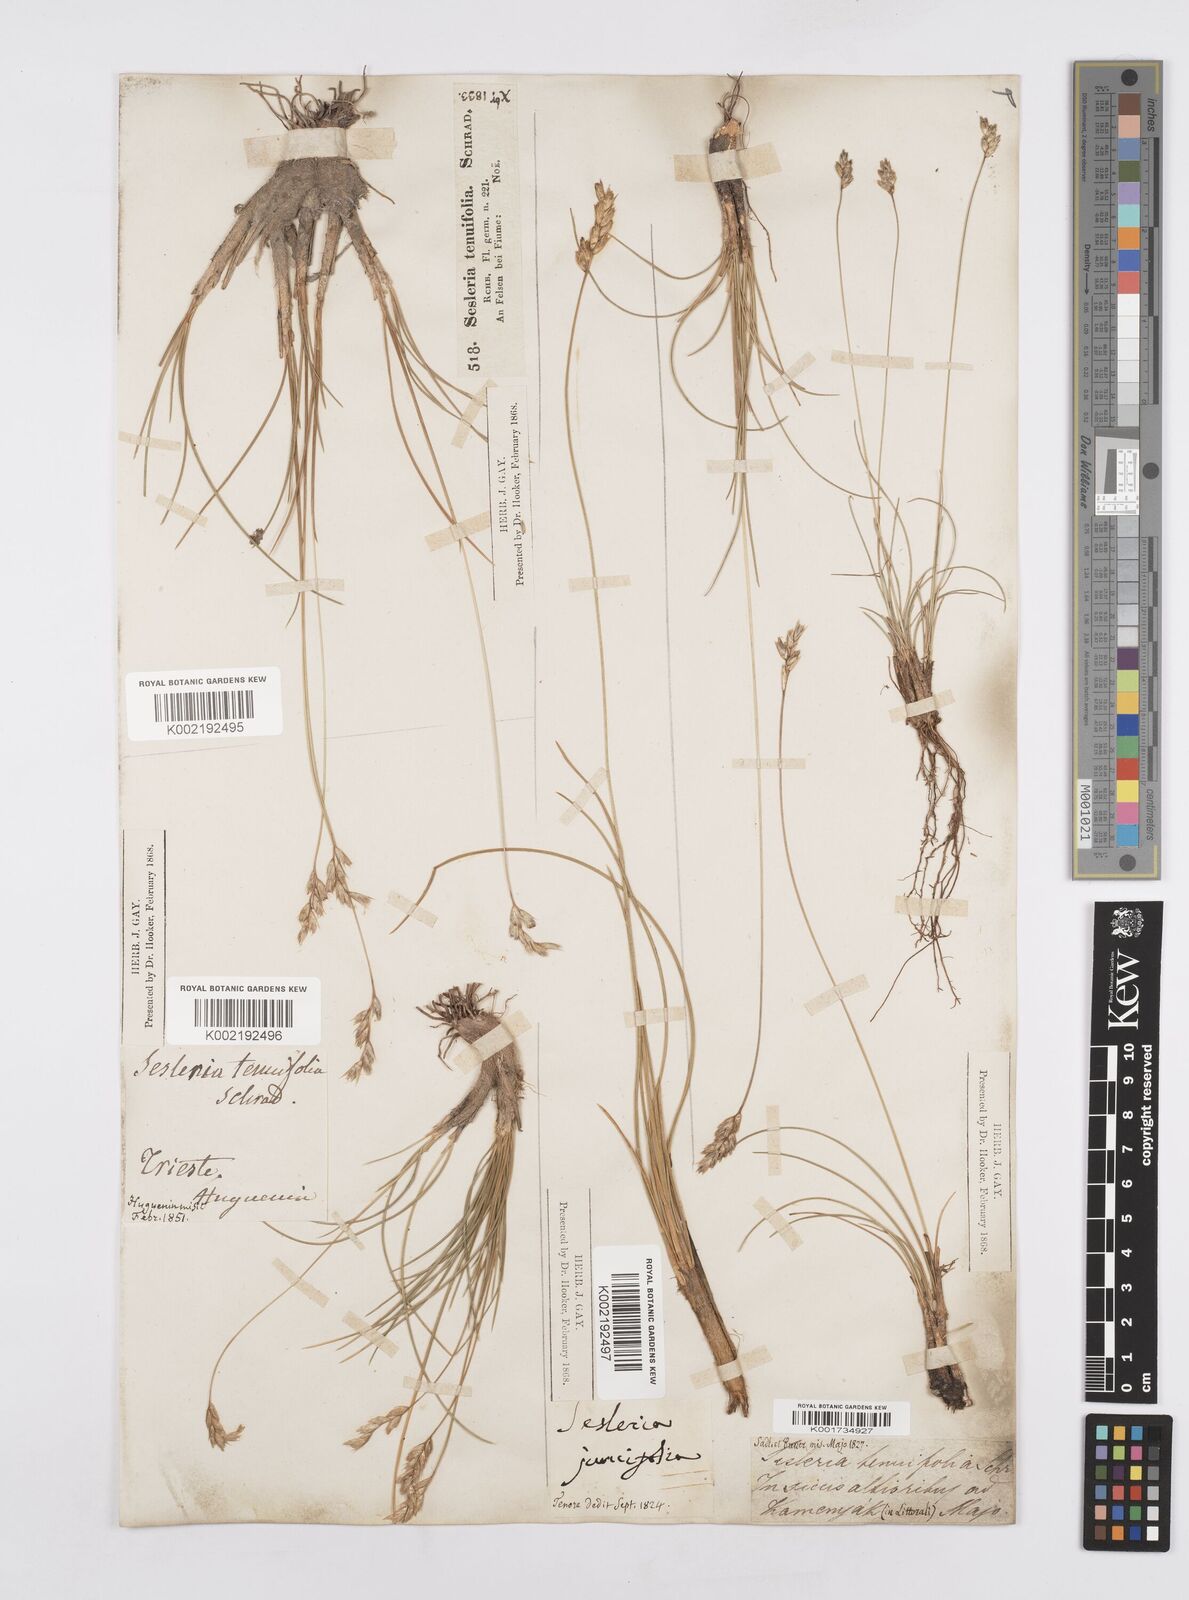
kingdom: Plantae
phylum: Tracheophyta
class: Liliopsida
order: Poales
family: Poaceae
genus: Sesleria
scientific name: Sesleria juncifolia
